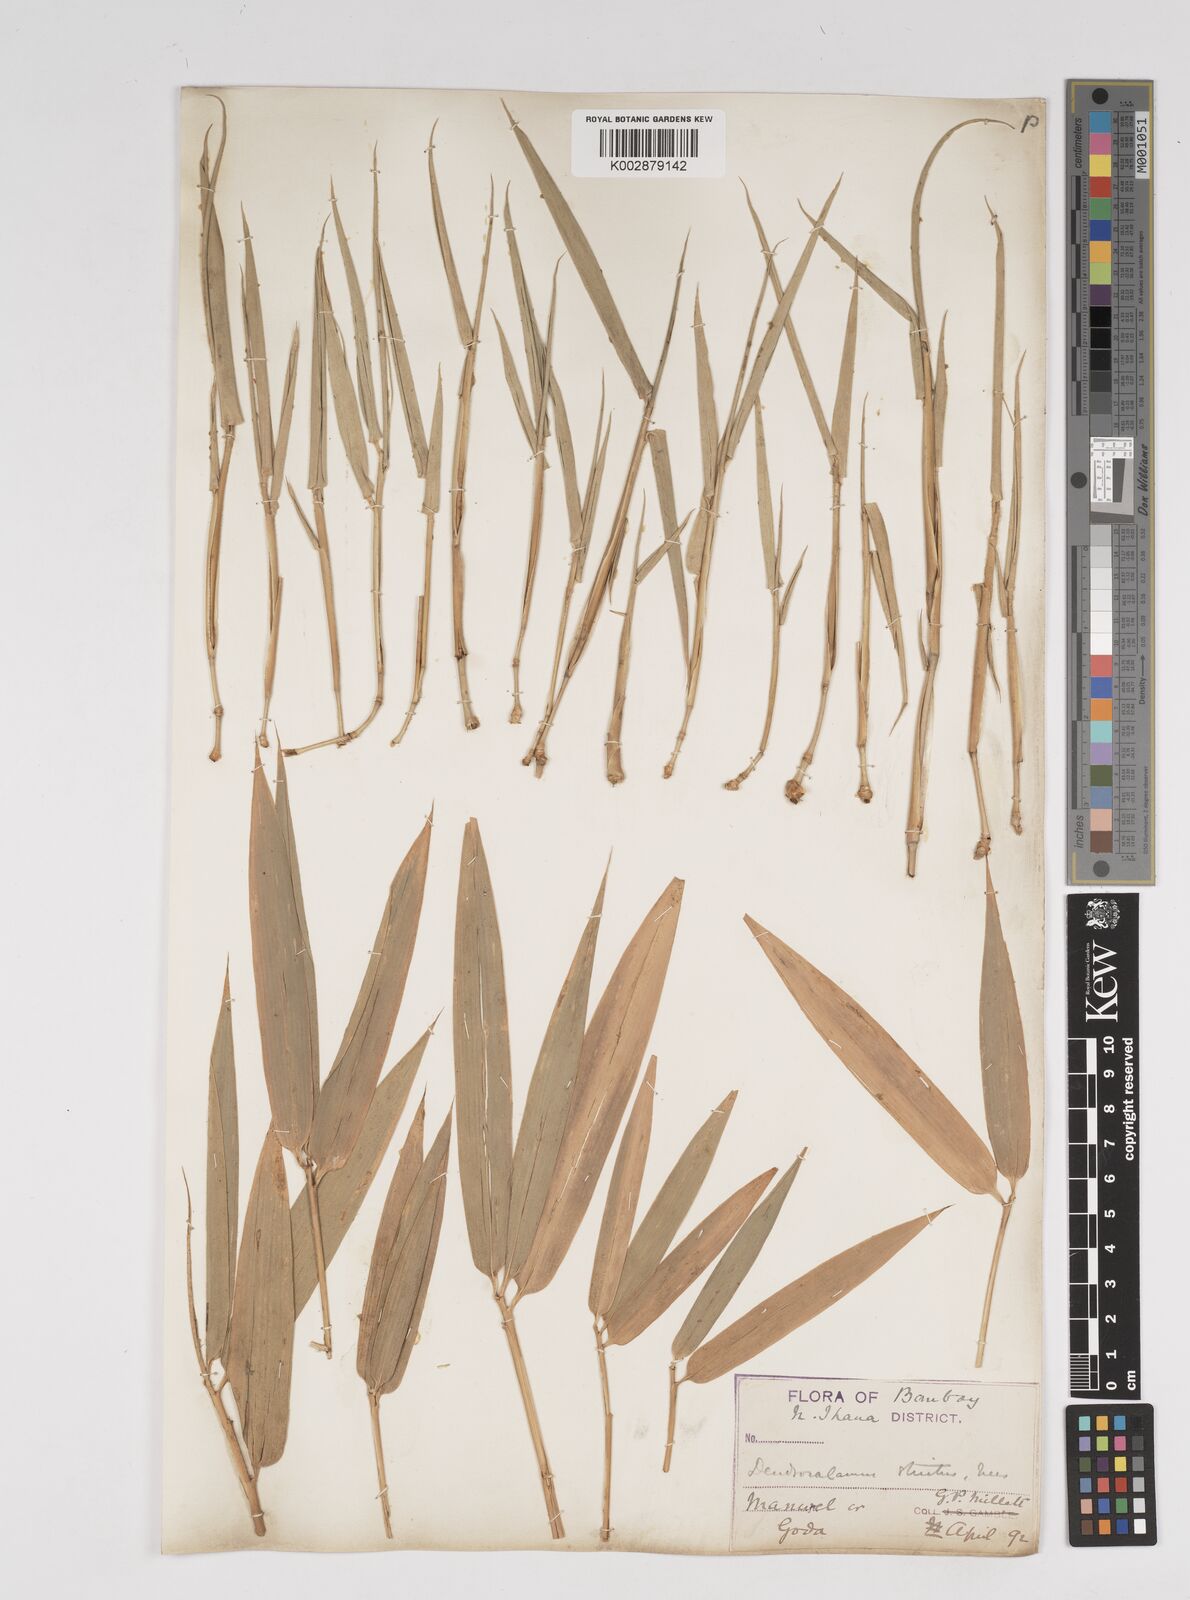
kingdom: Plantae
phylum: Tracheophyta
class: Liliopsida
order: Poales
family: Poaceae
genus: Dendrocalamus
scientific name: Dendrocalamus strictus
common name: Male bamboo
